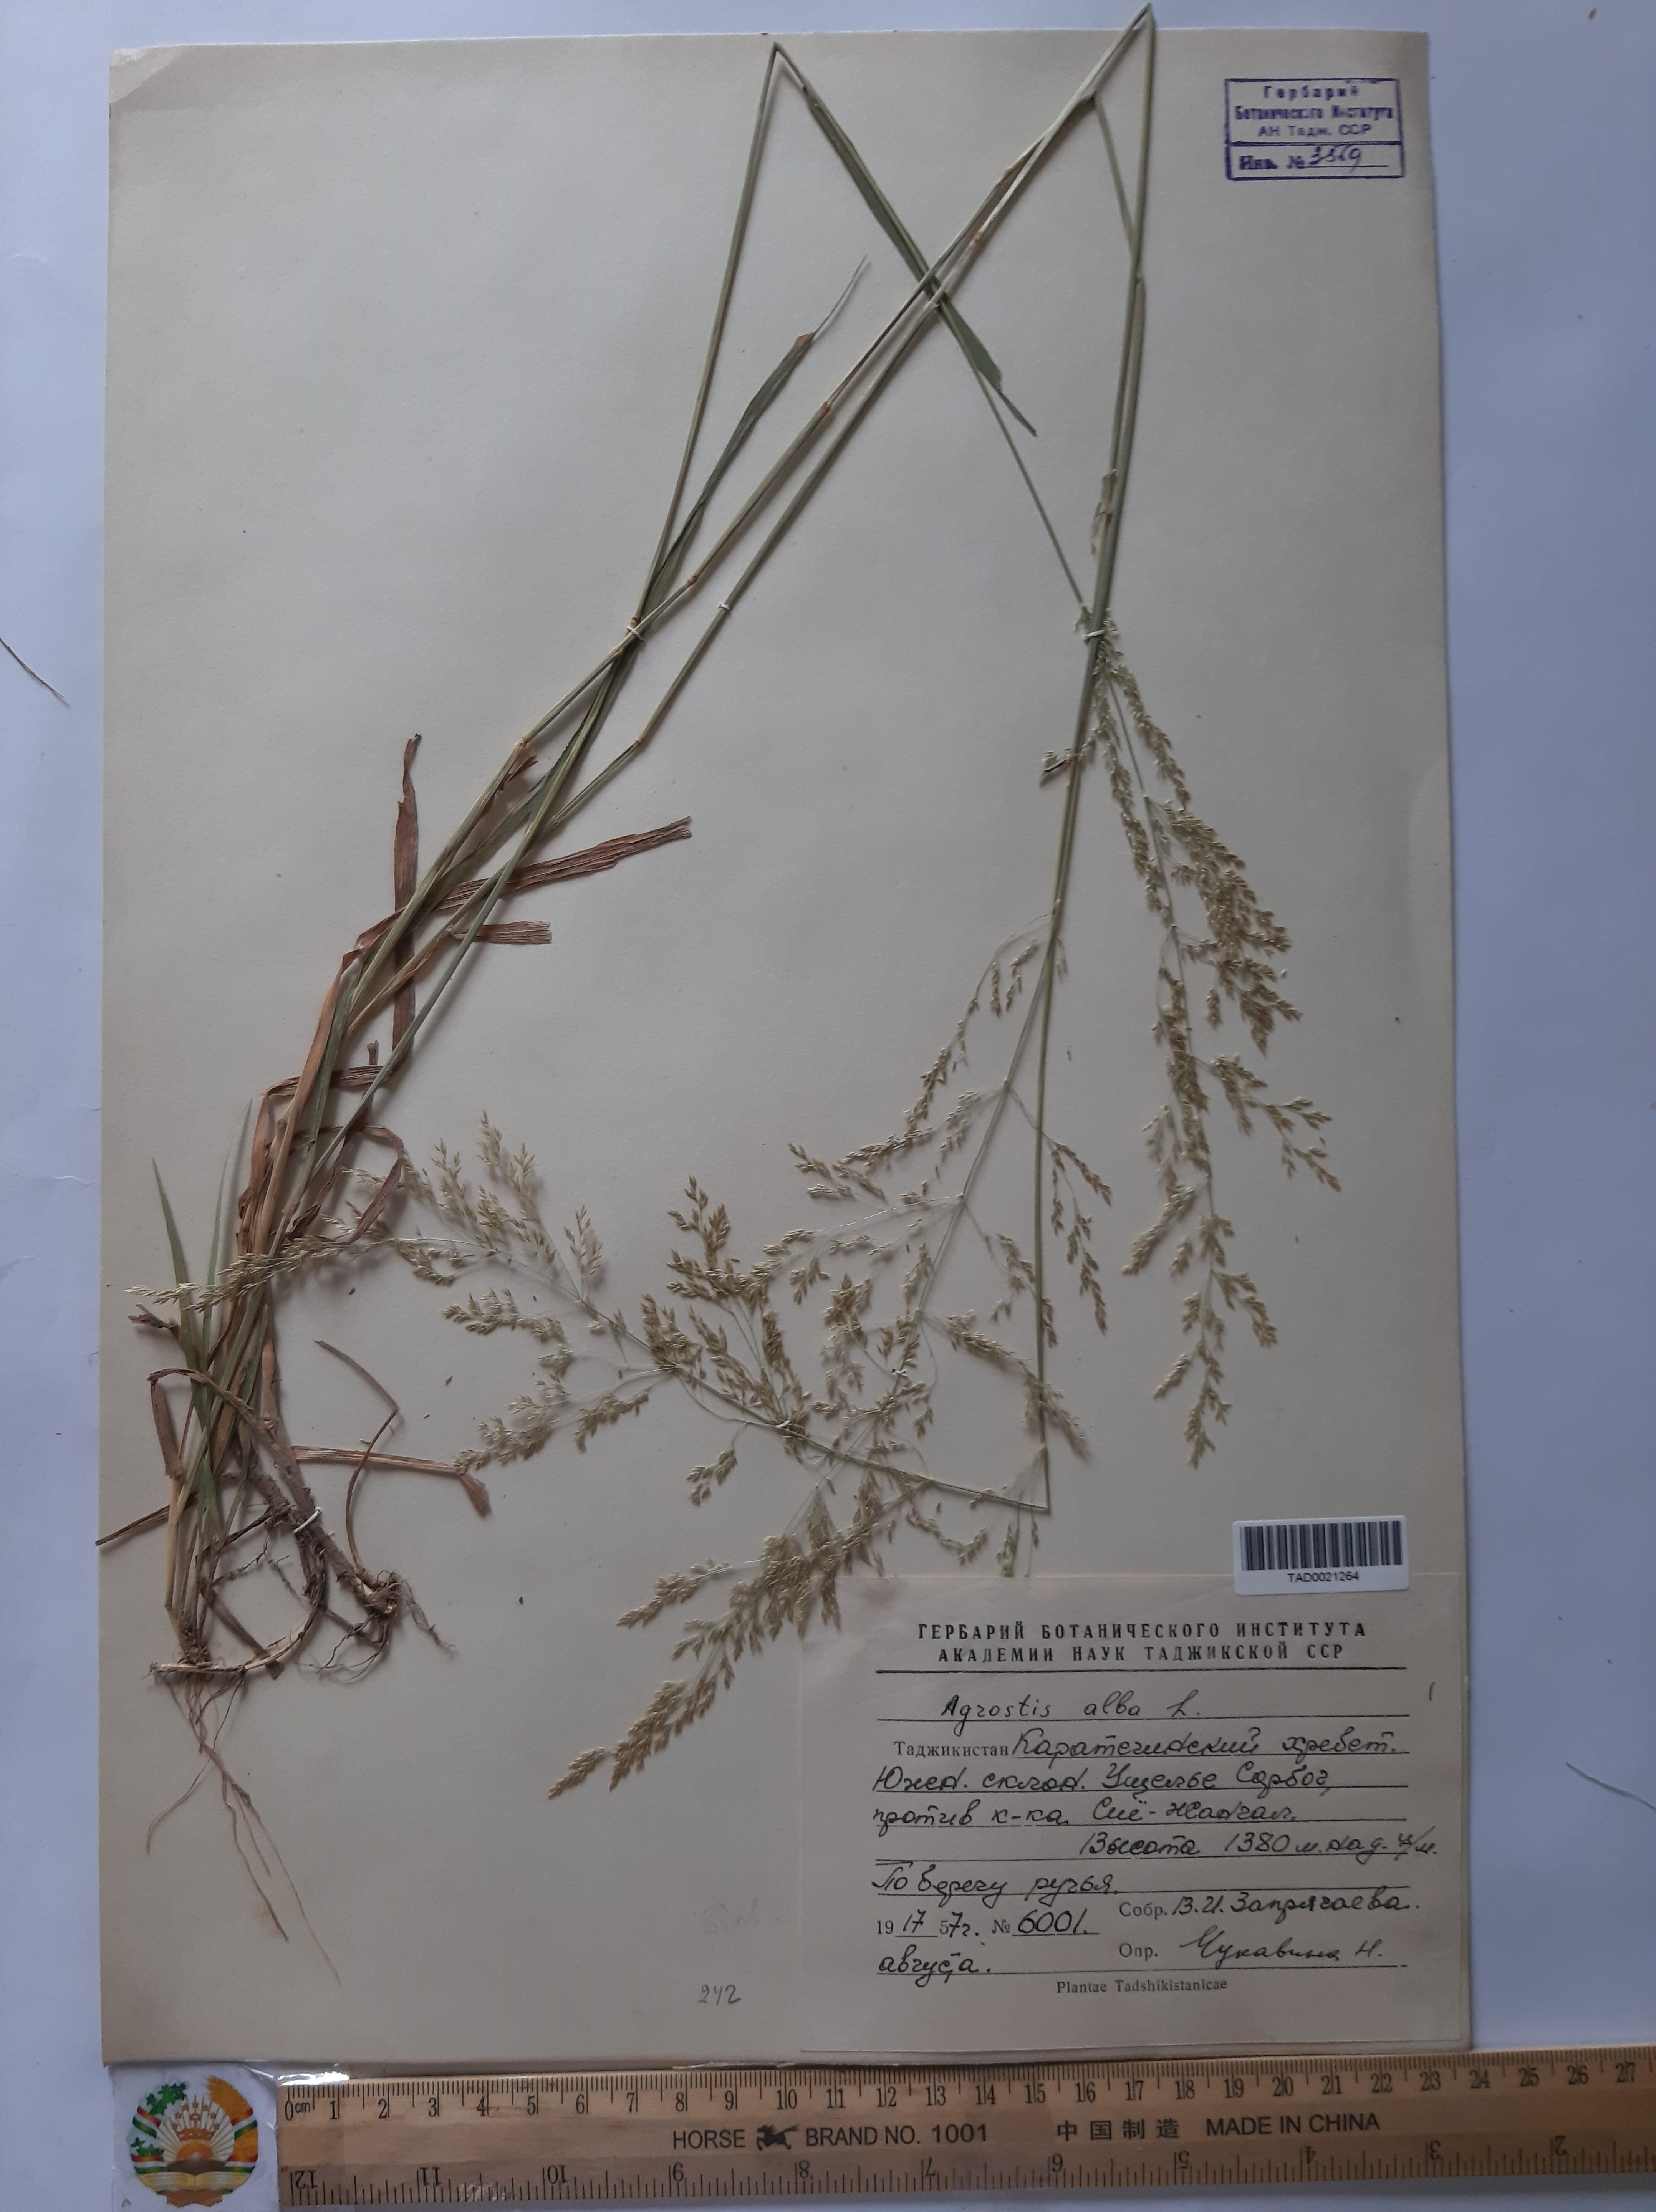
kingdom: Plantae
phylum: Tracheophyta
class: Liliopsida
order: Poales
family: Poaceae
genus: Poa
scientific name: Poa nemoralis
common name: Wood bluegrass
